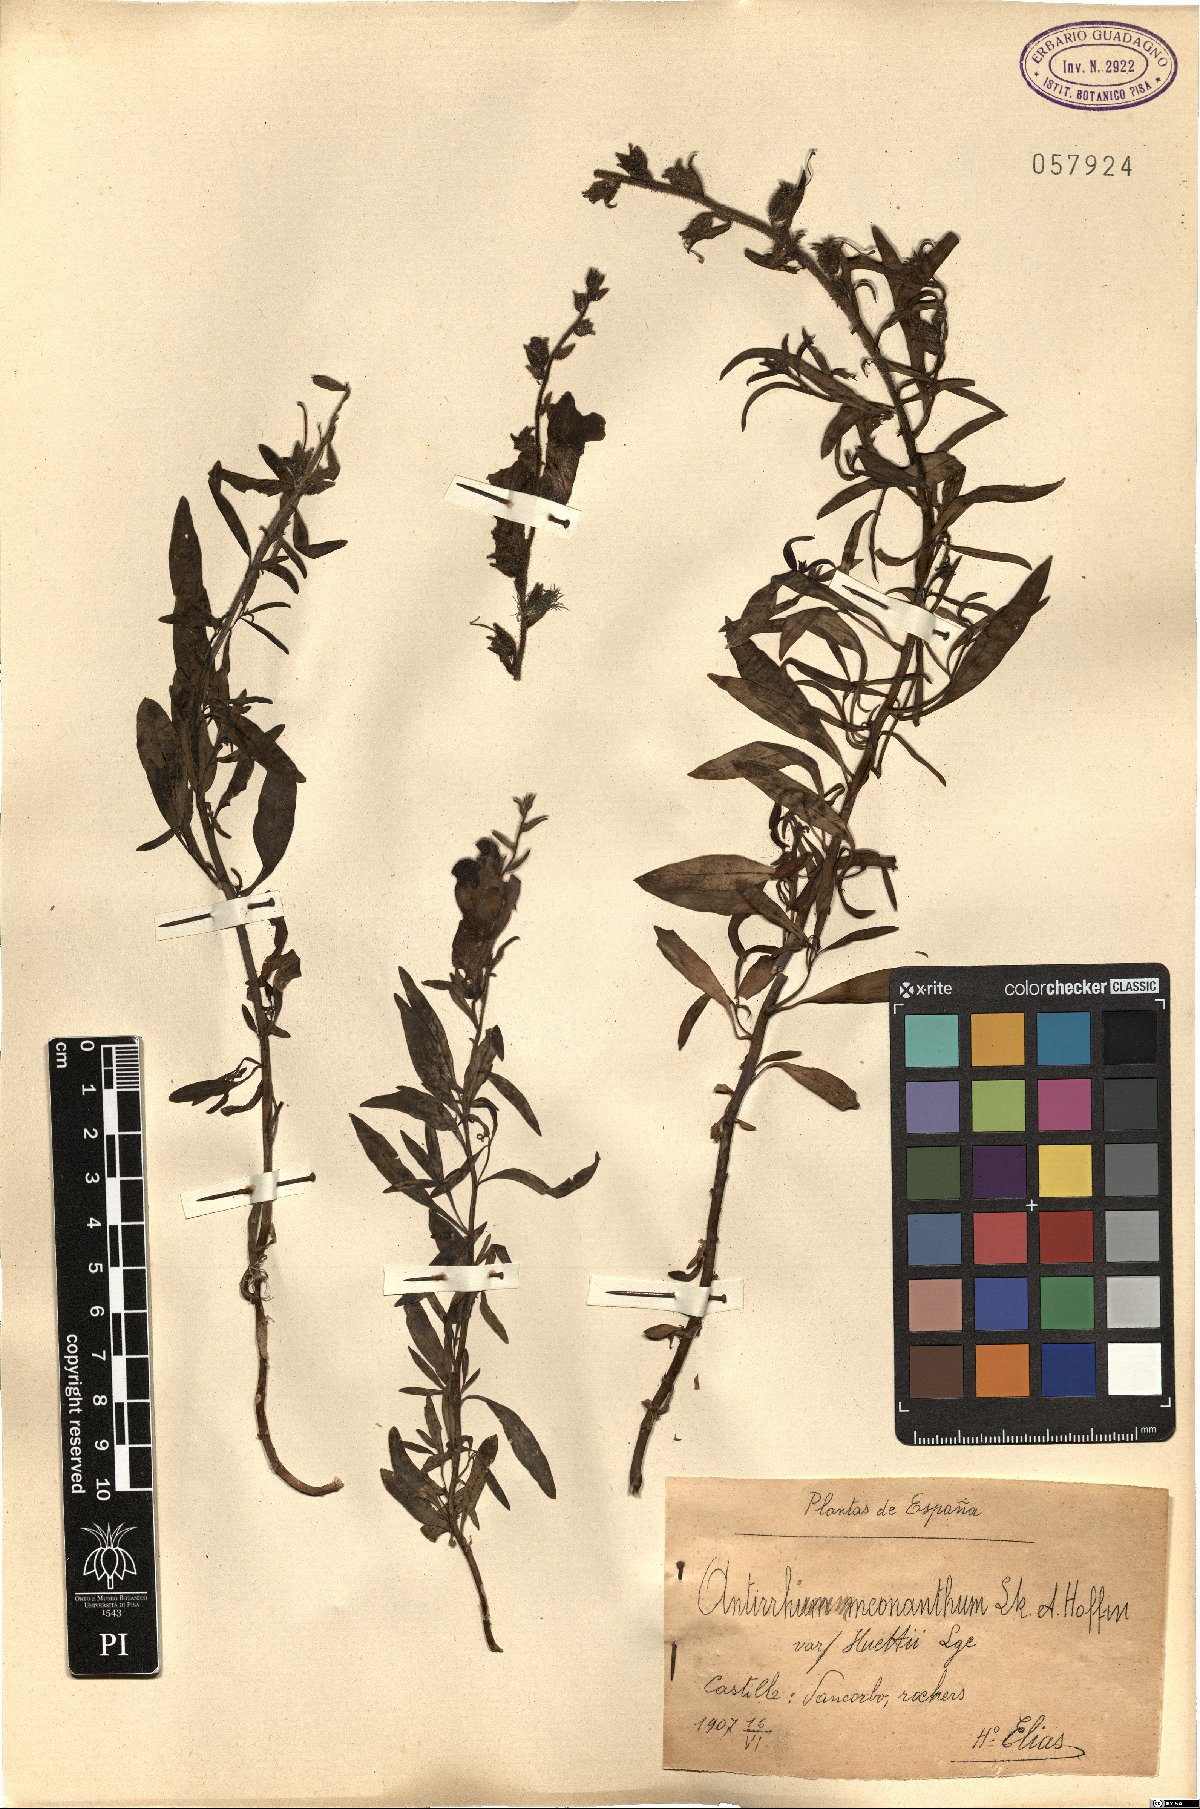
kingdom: Plantae
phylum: Tracheophyta
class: Magnoliopsida
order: Lamiales
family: Plantaginaceae
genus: Antirrhinum
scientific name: Antirrhinum braun-blanquetii
